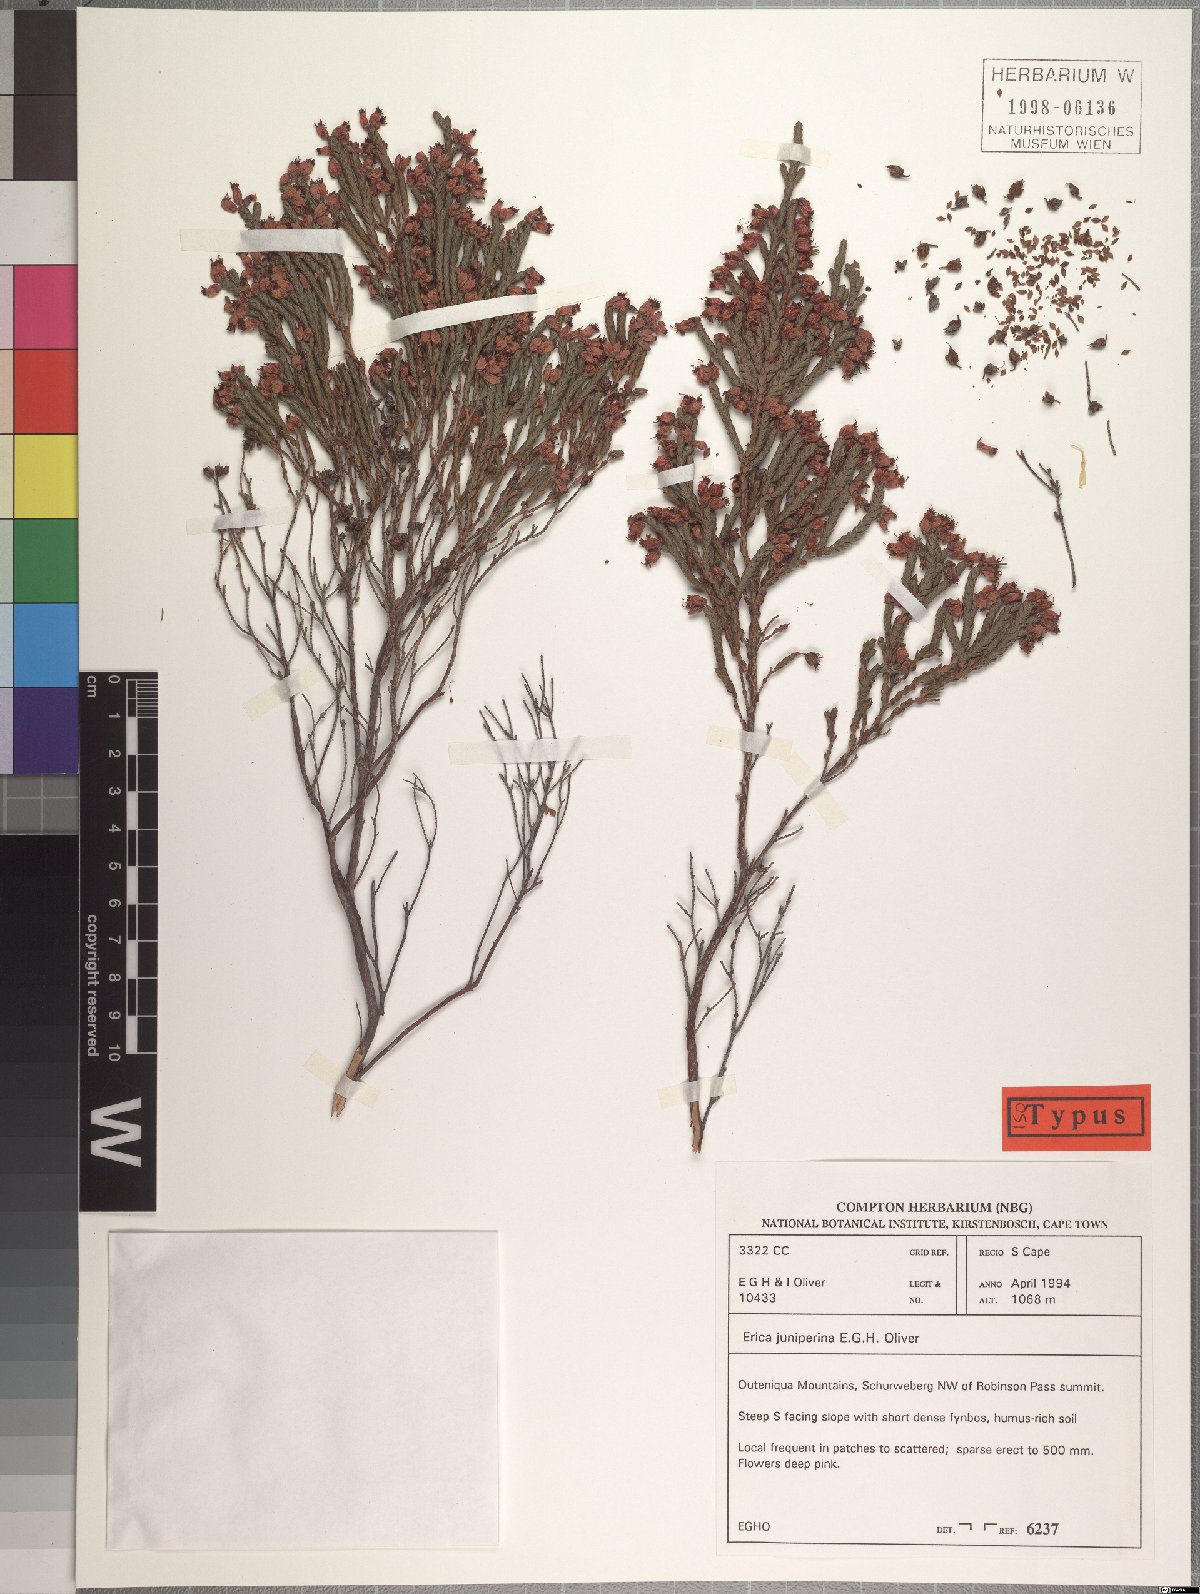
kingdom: Plantae
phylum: Tracheophyta
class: Magnoliopsida
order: Ericales
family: Ericaceae
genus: Erica
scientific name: Erica juniperina
